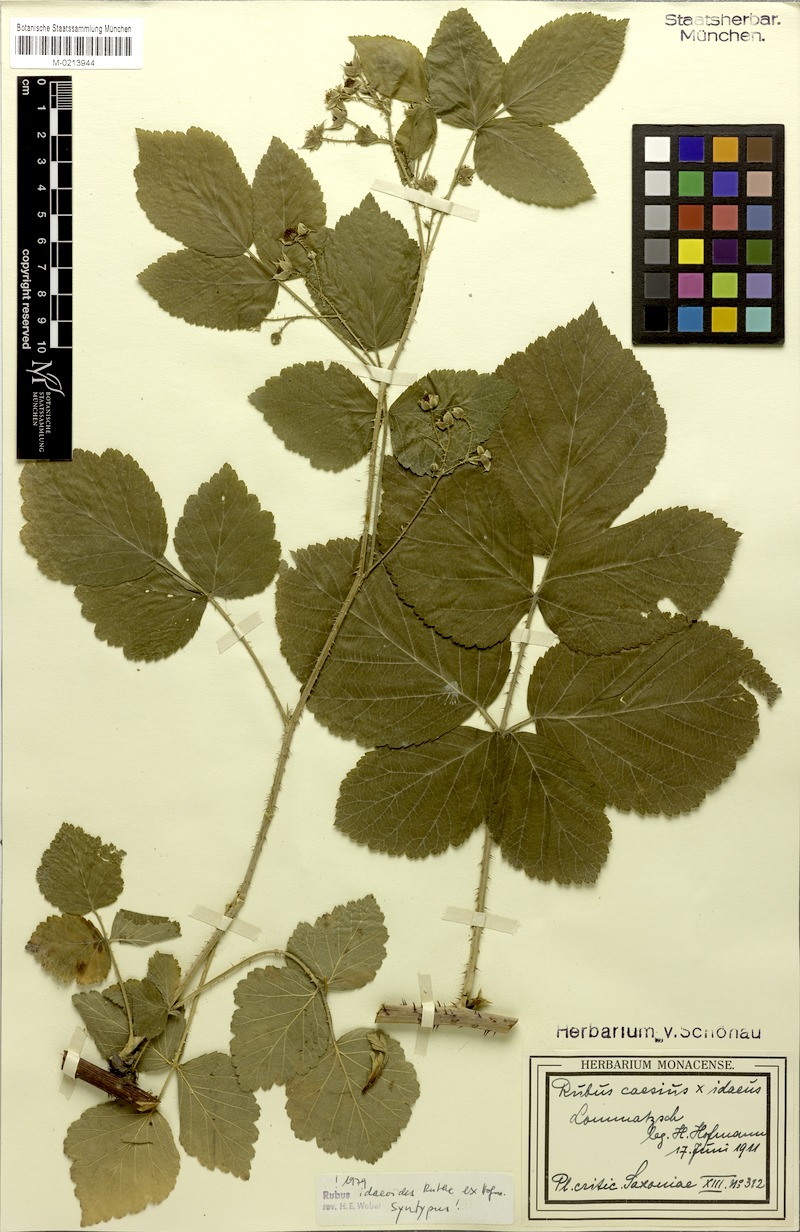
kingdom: Plantae
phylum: Tracheophyta
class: Magnoliopsida
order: Rosales
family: Rosaceae
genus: Rubus
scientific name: Rubus
